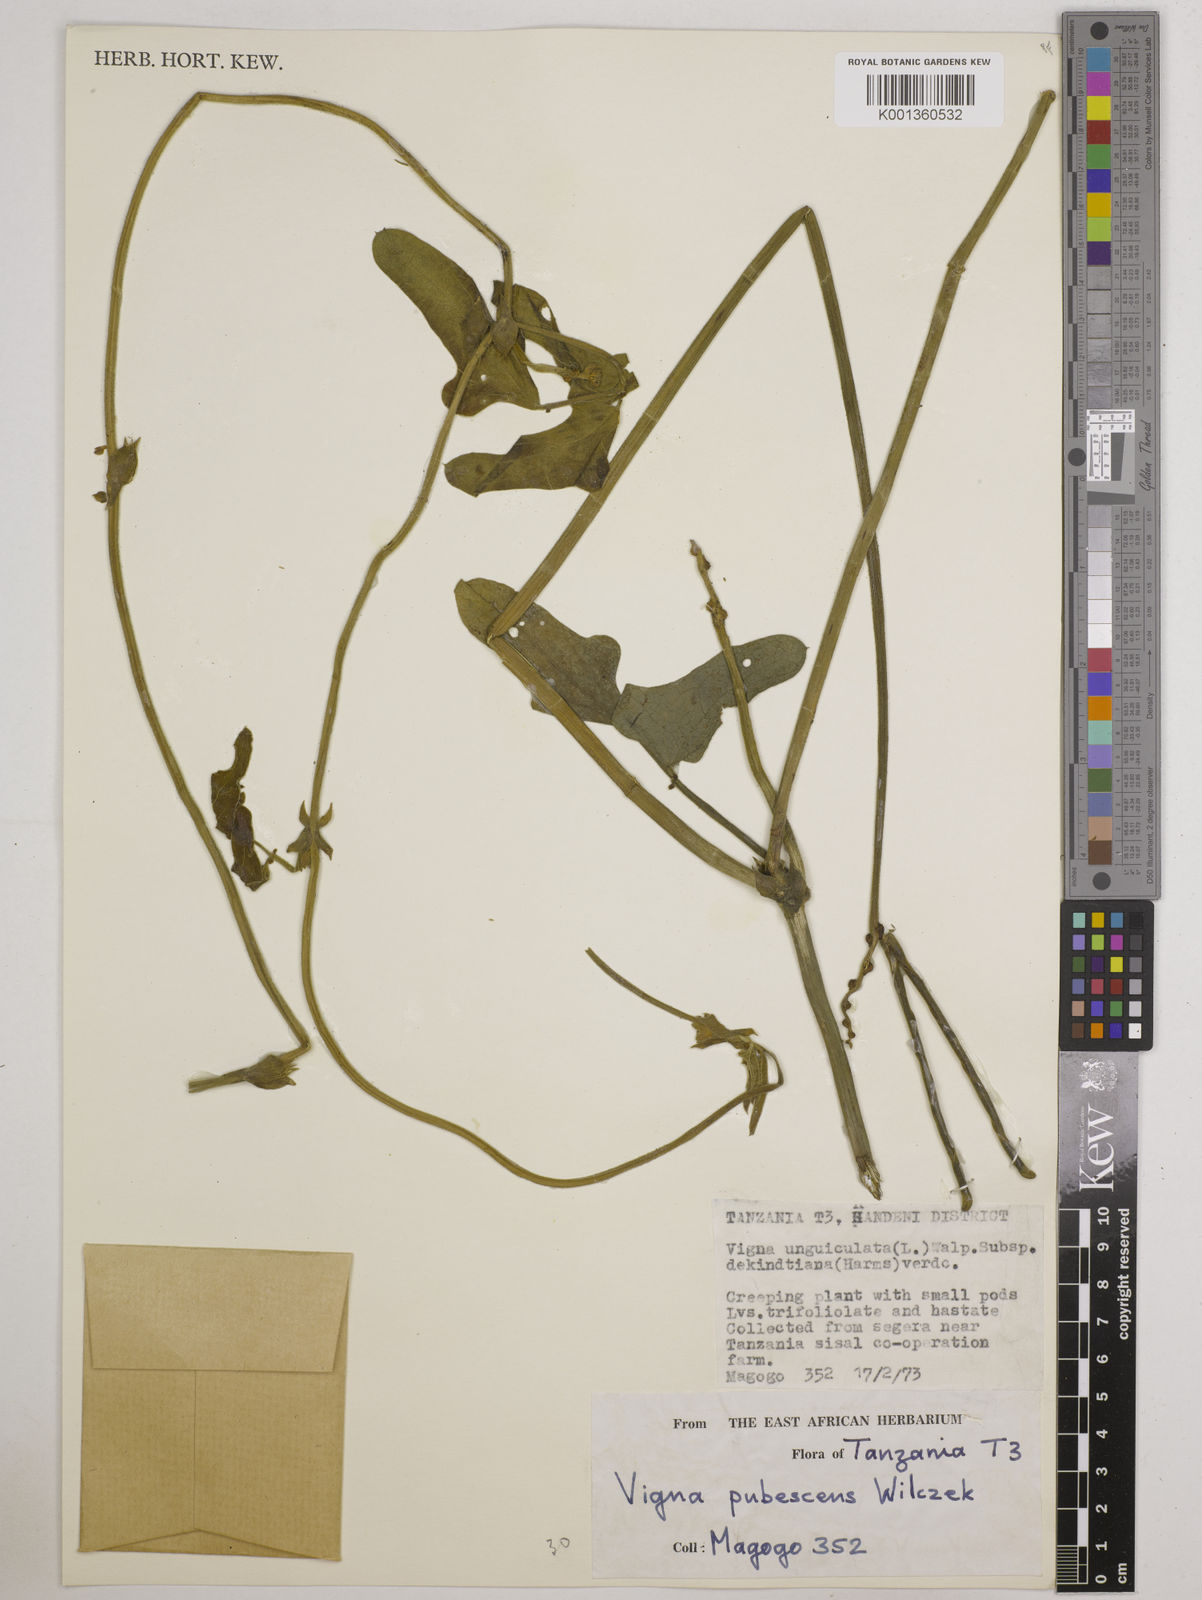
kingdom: Plantae
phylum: Tracheophyta
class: Magnoliopsida
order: Fabales
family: Fabaceae
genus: Vigna
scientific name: Vigna unguiculata
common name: Cowpea
